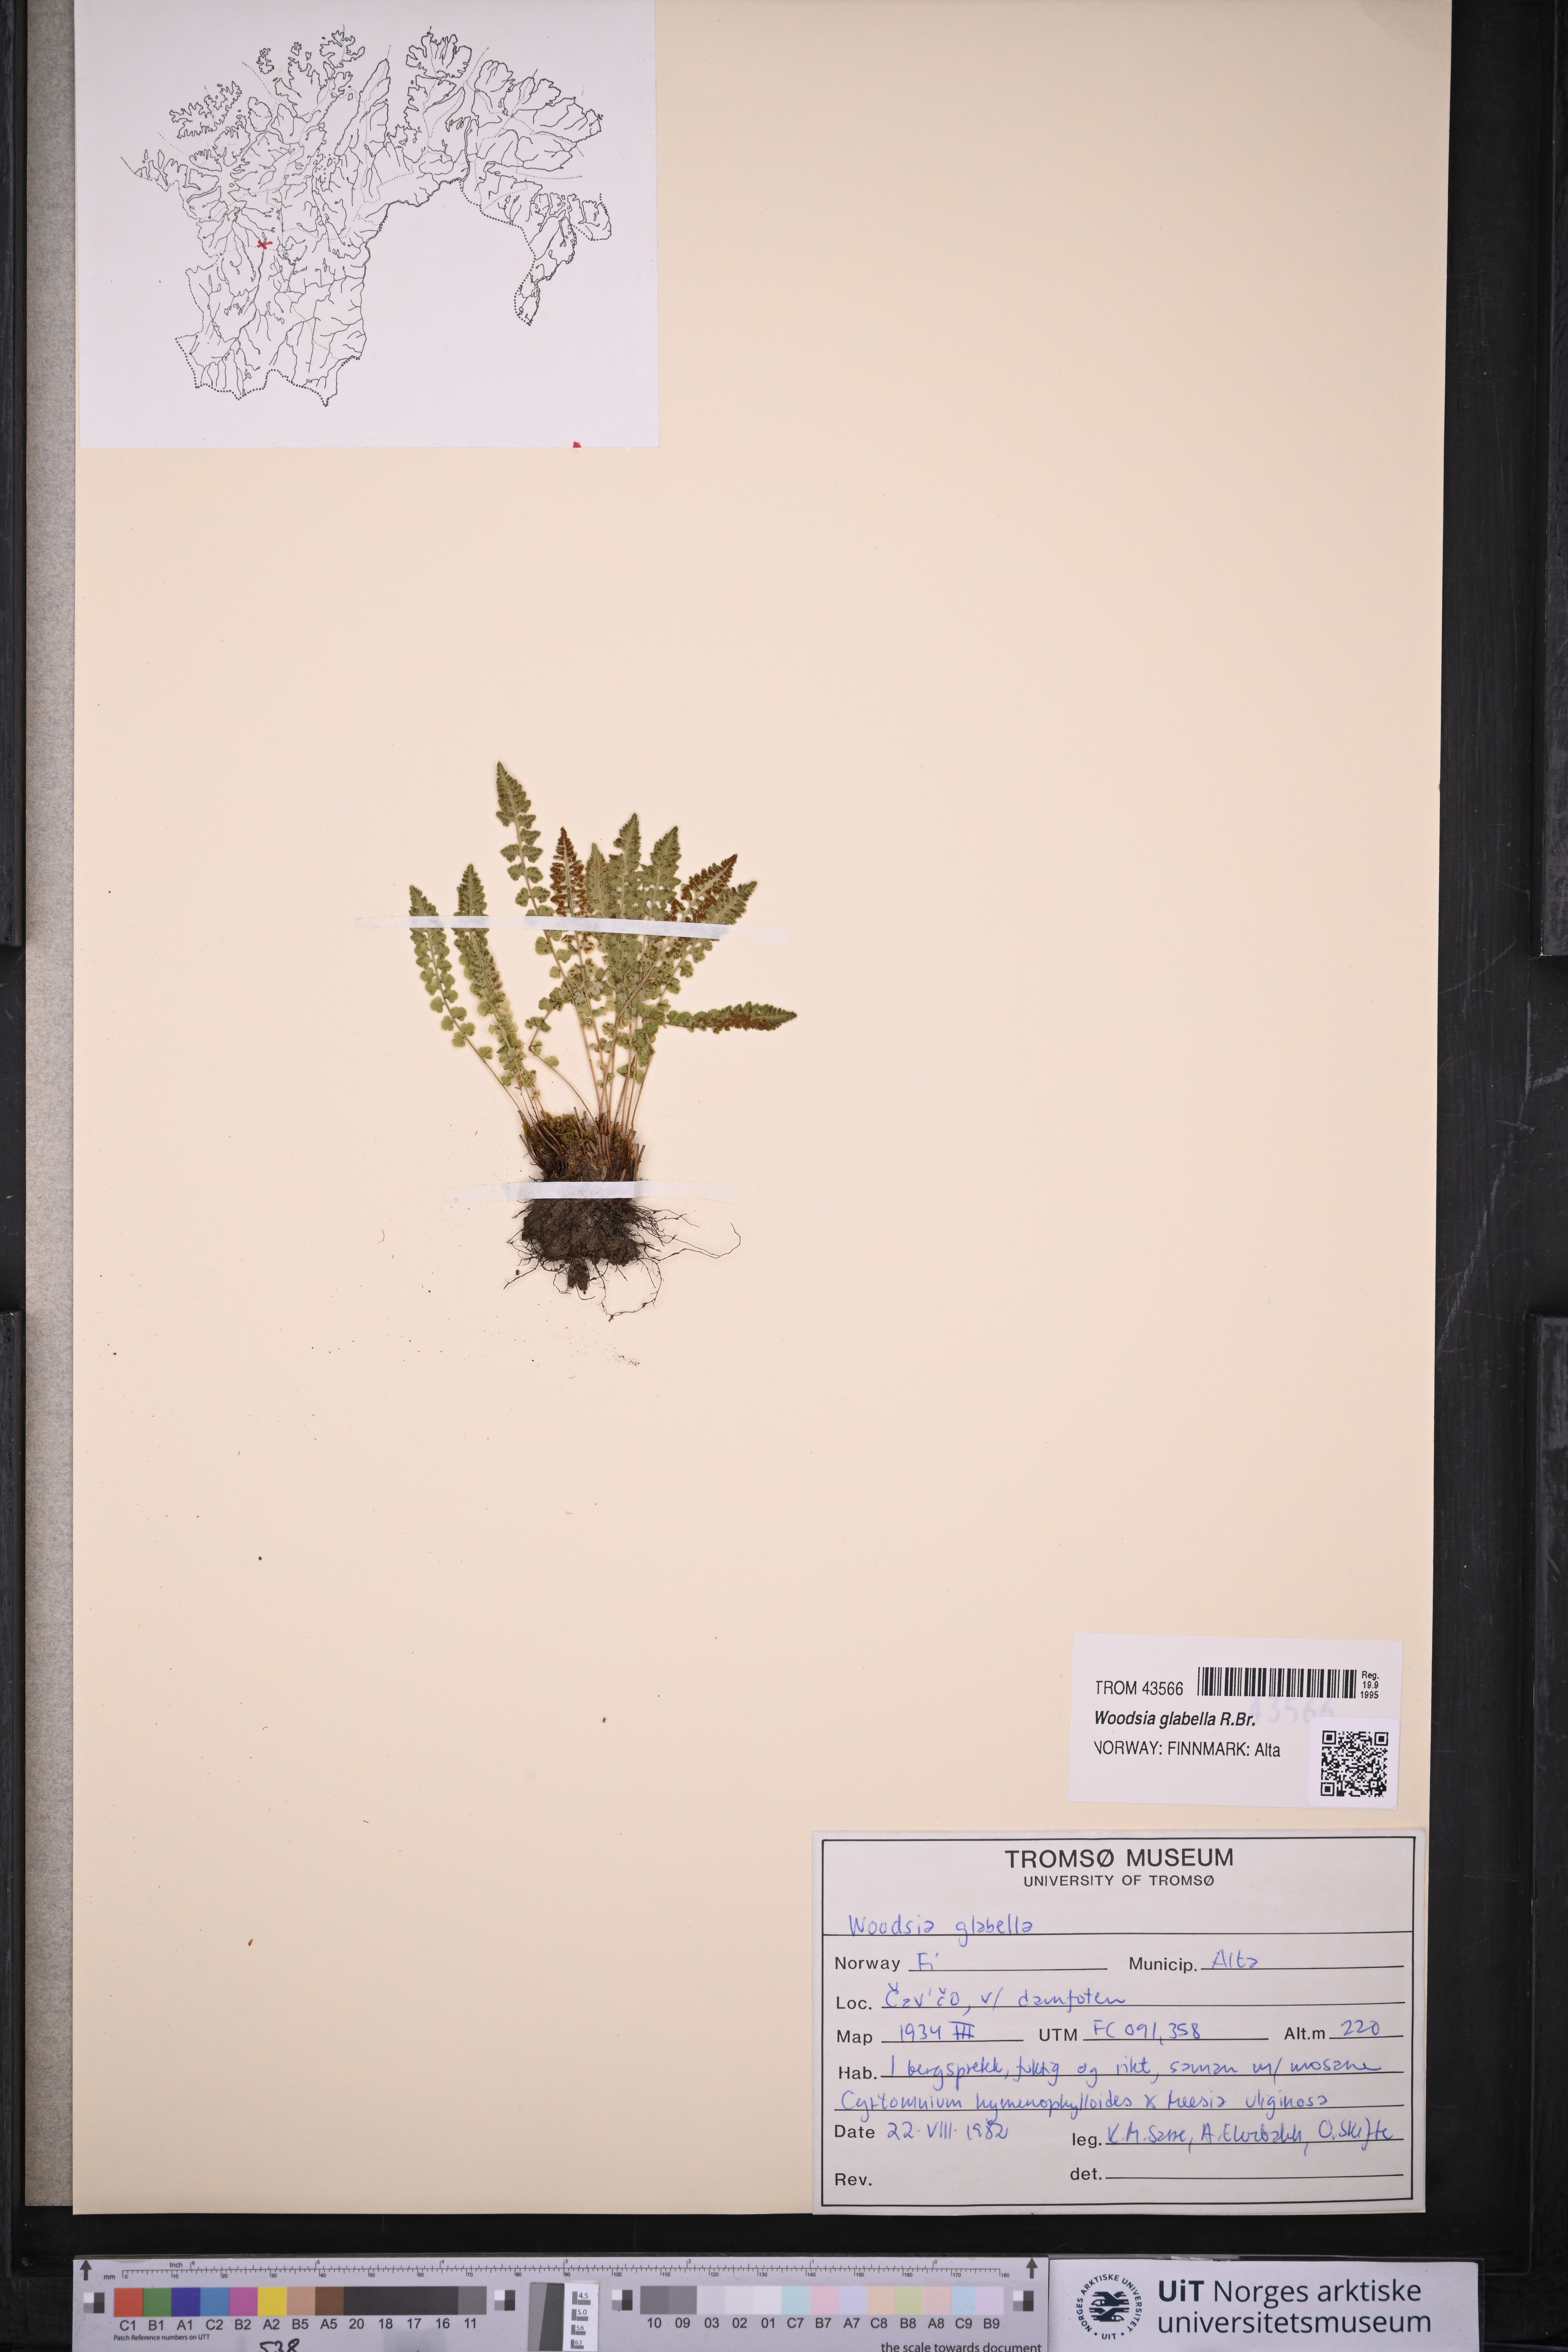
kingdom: Plantae
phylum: Tracheophyta
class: Polypodiopsida
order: Polypodiales
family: Woodsiaceae
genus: Woodsia
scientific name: Woodsia glabella
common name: Smooth woodsia
